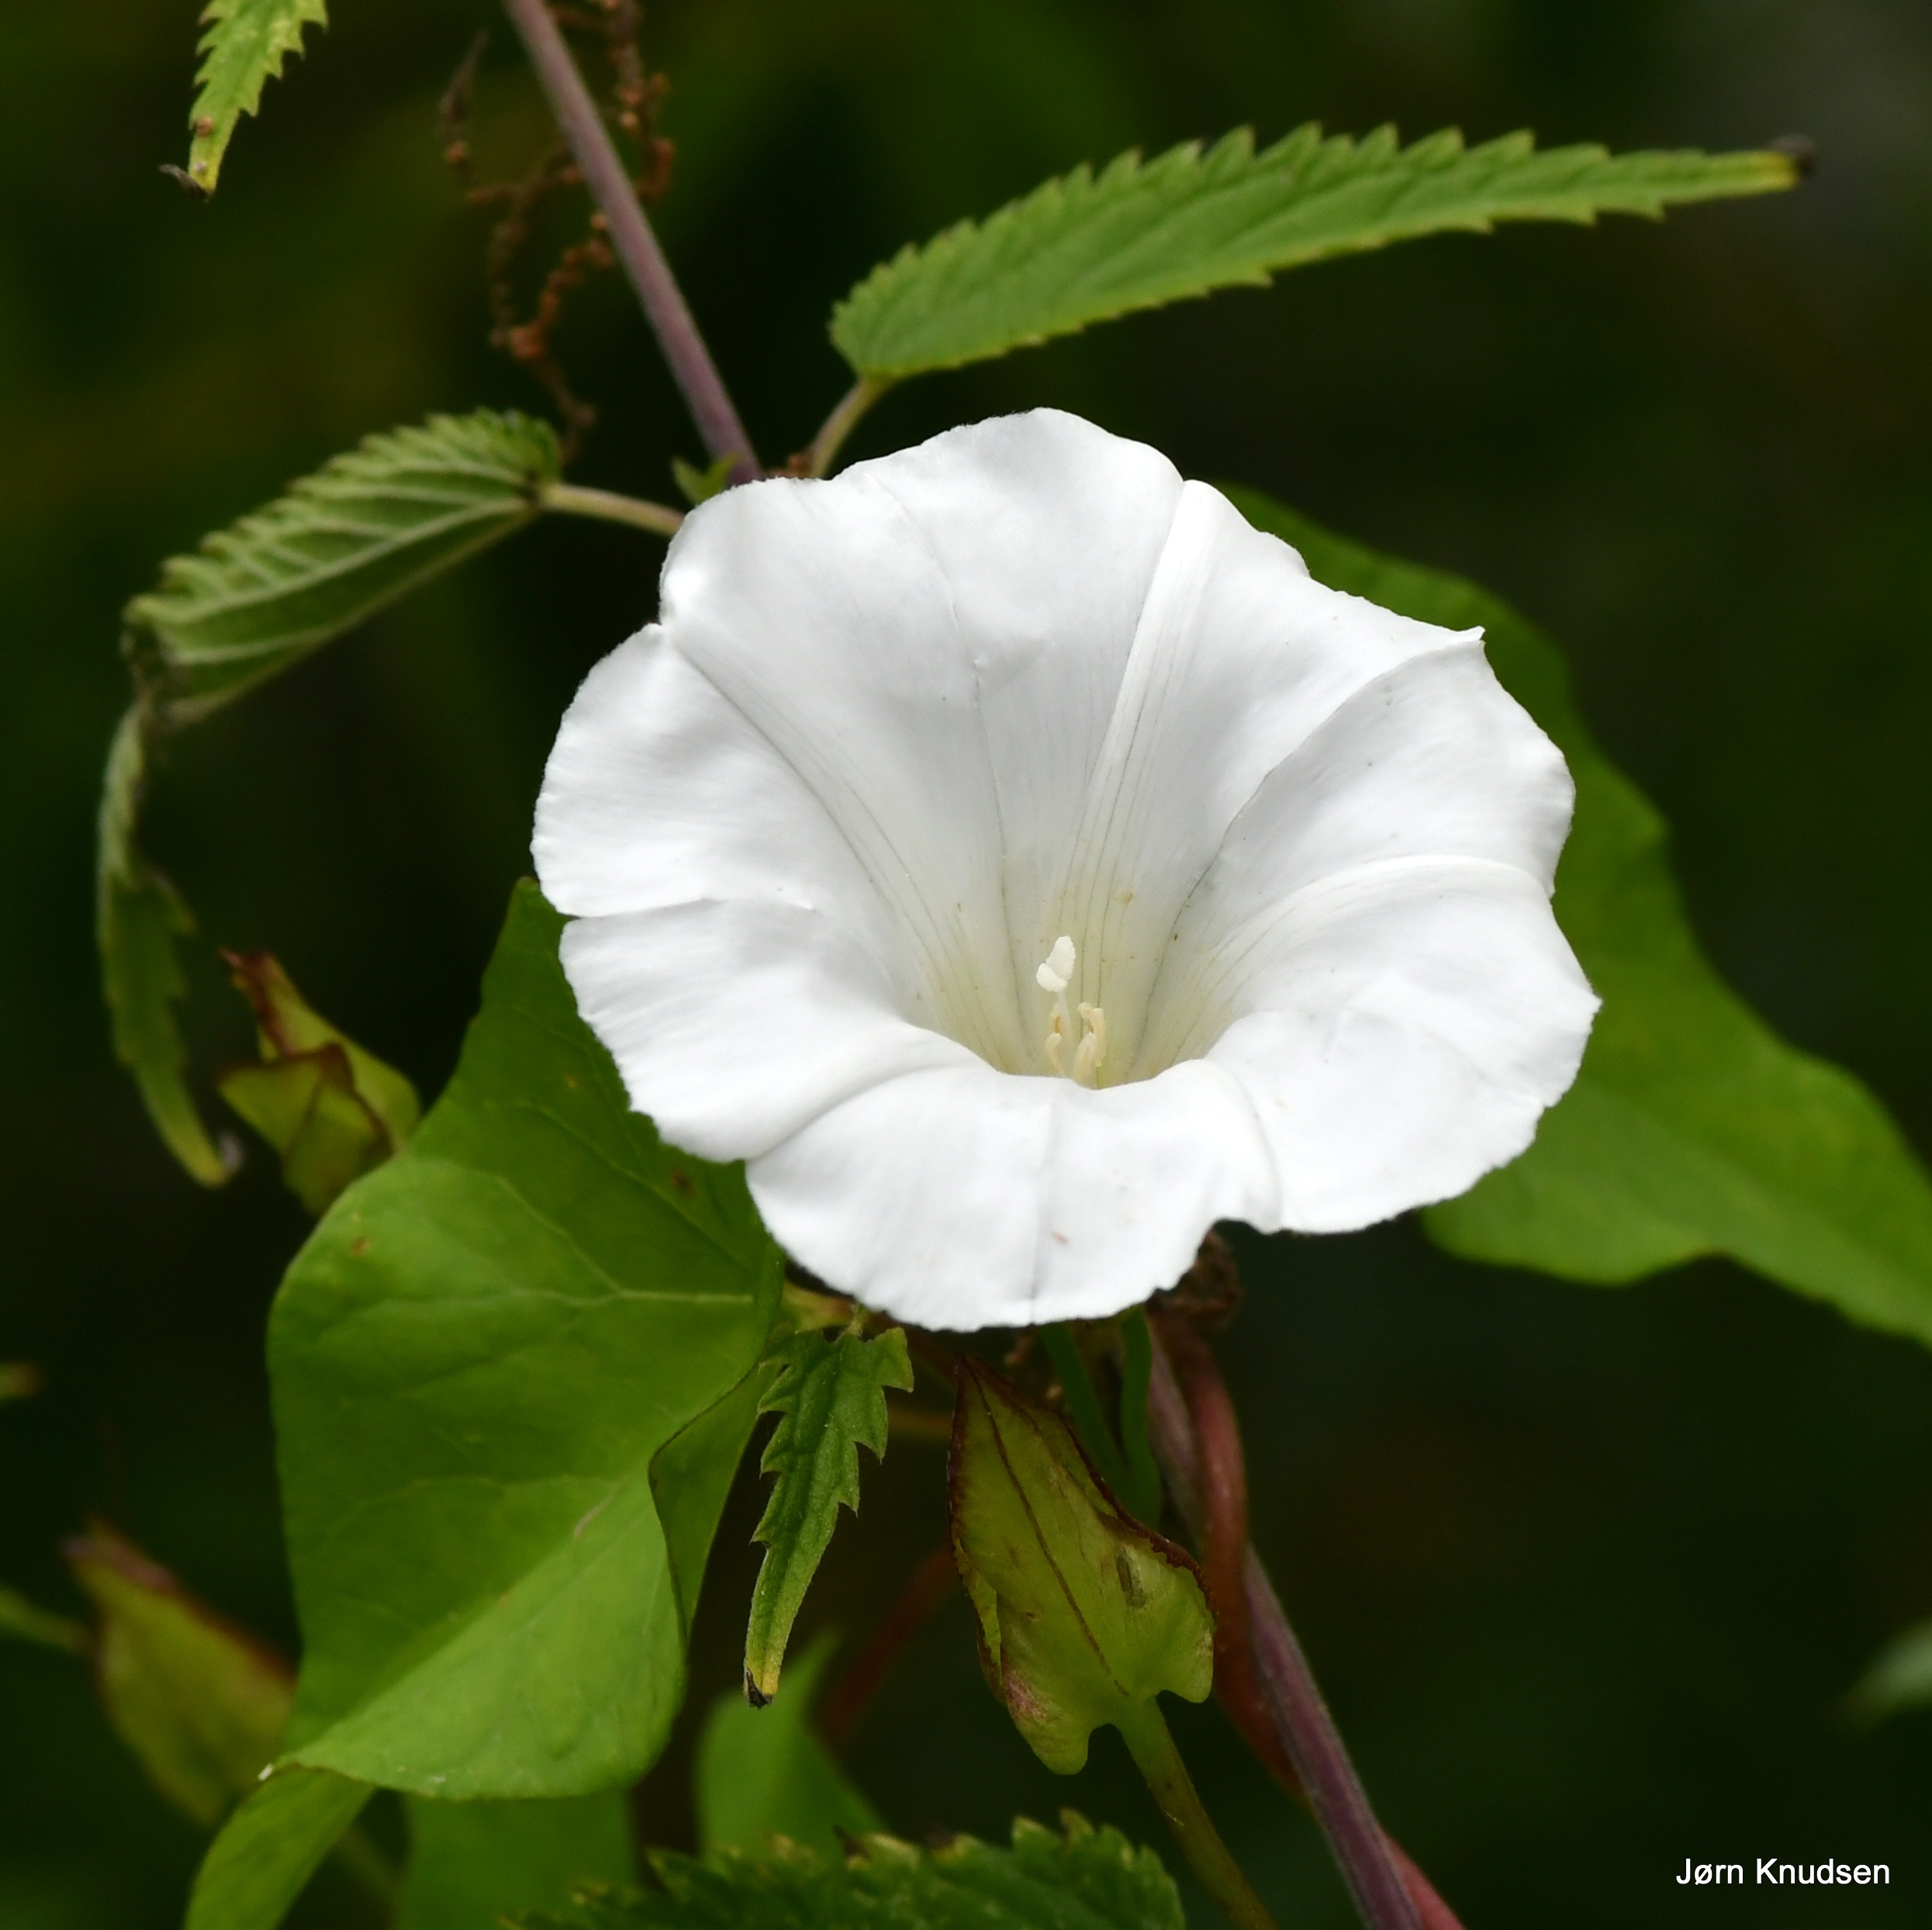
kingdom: Plantae
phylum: Tracheophyta
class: Magnoliopsida
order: Solanales
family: Convolvulaceae
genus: Calystegia
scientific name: Calystegia sepium
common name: Gærde-snerle
